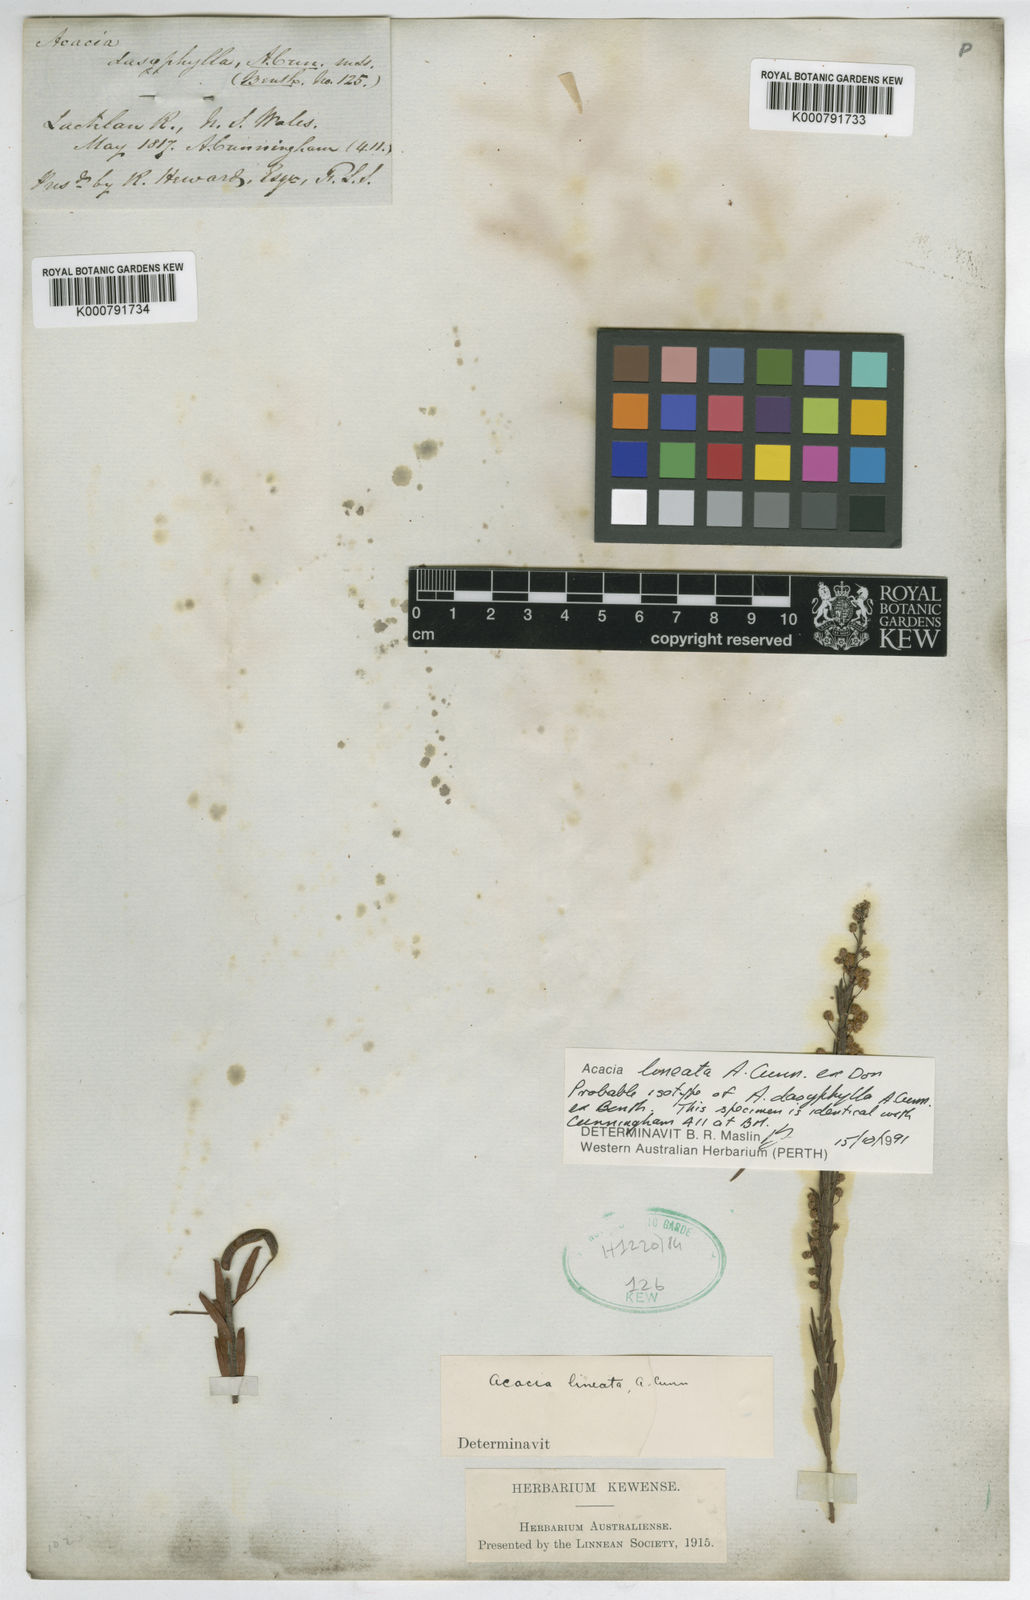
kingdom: Plantae
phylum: Tracheophyta
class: Magnoliopsida
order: Fabales
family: Fabaceae
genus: Acacia
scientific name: Acacia lineata
